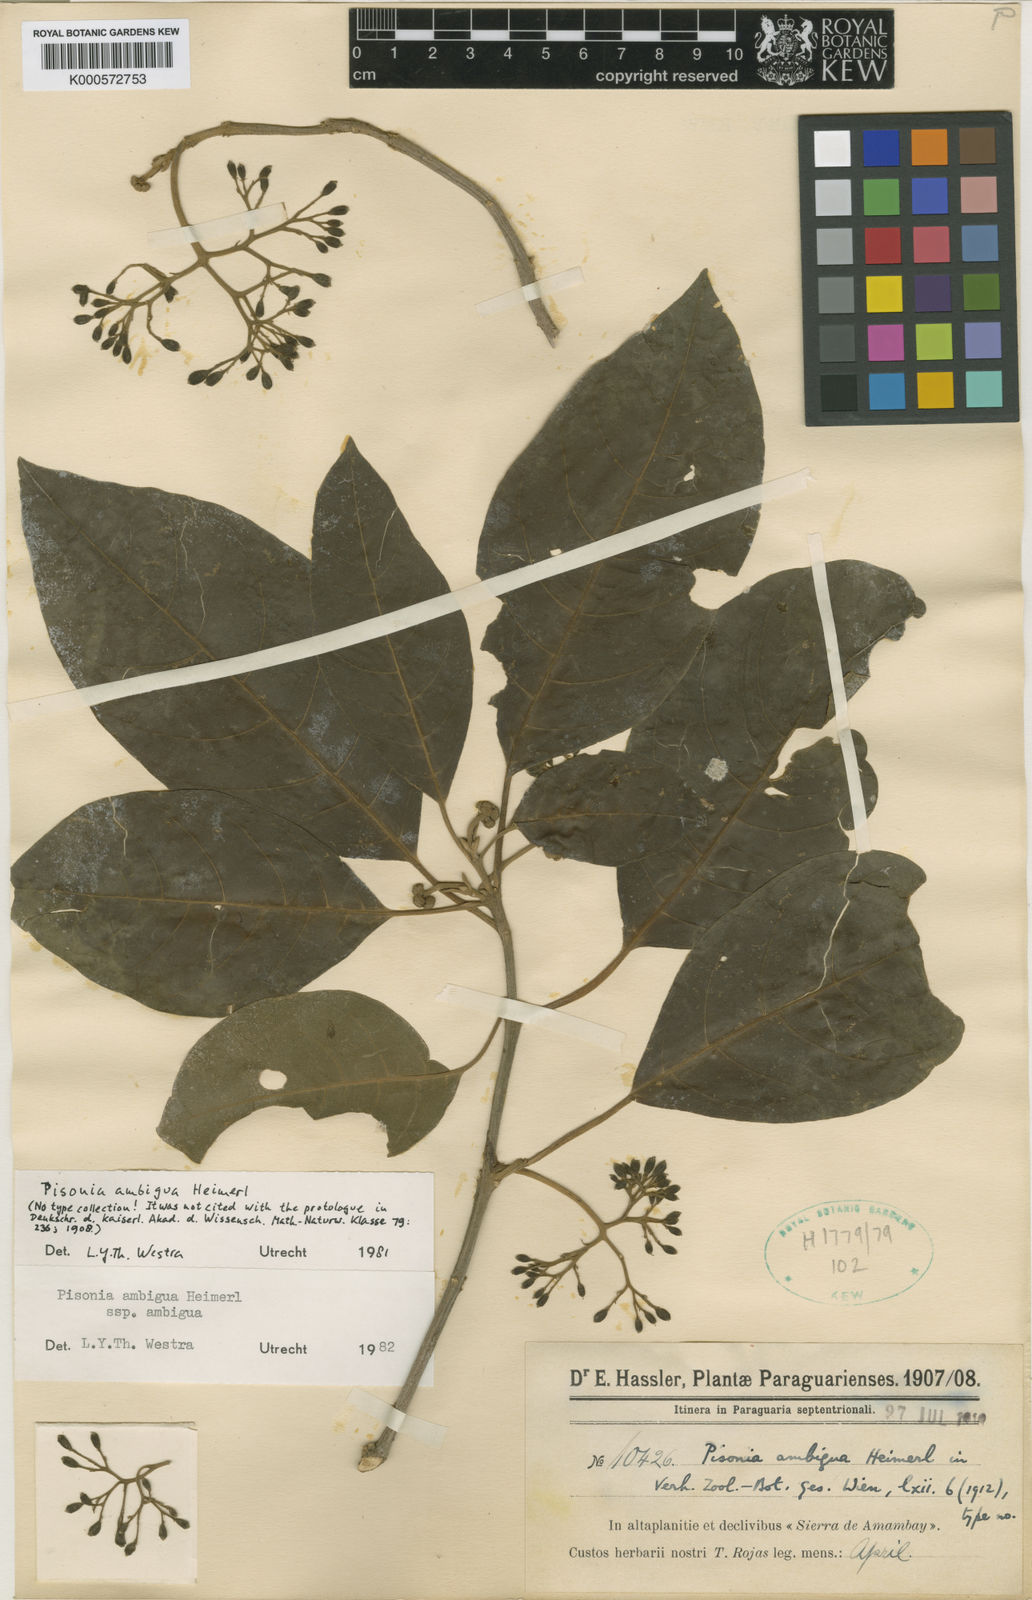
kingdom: Plantae
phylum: Tracheophyta
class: Magnoliopsida
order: Caryophyllales
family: Nyctaginaceae
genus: Pisonia
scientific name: Pisonia ambigua
